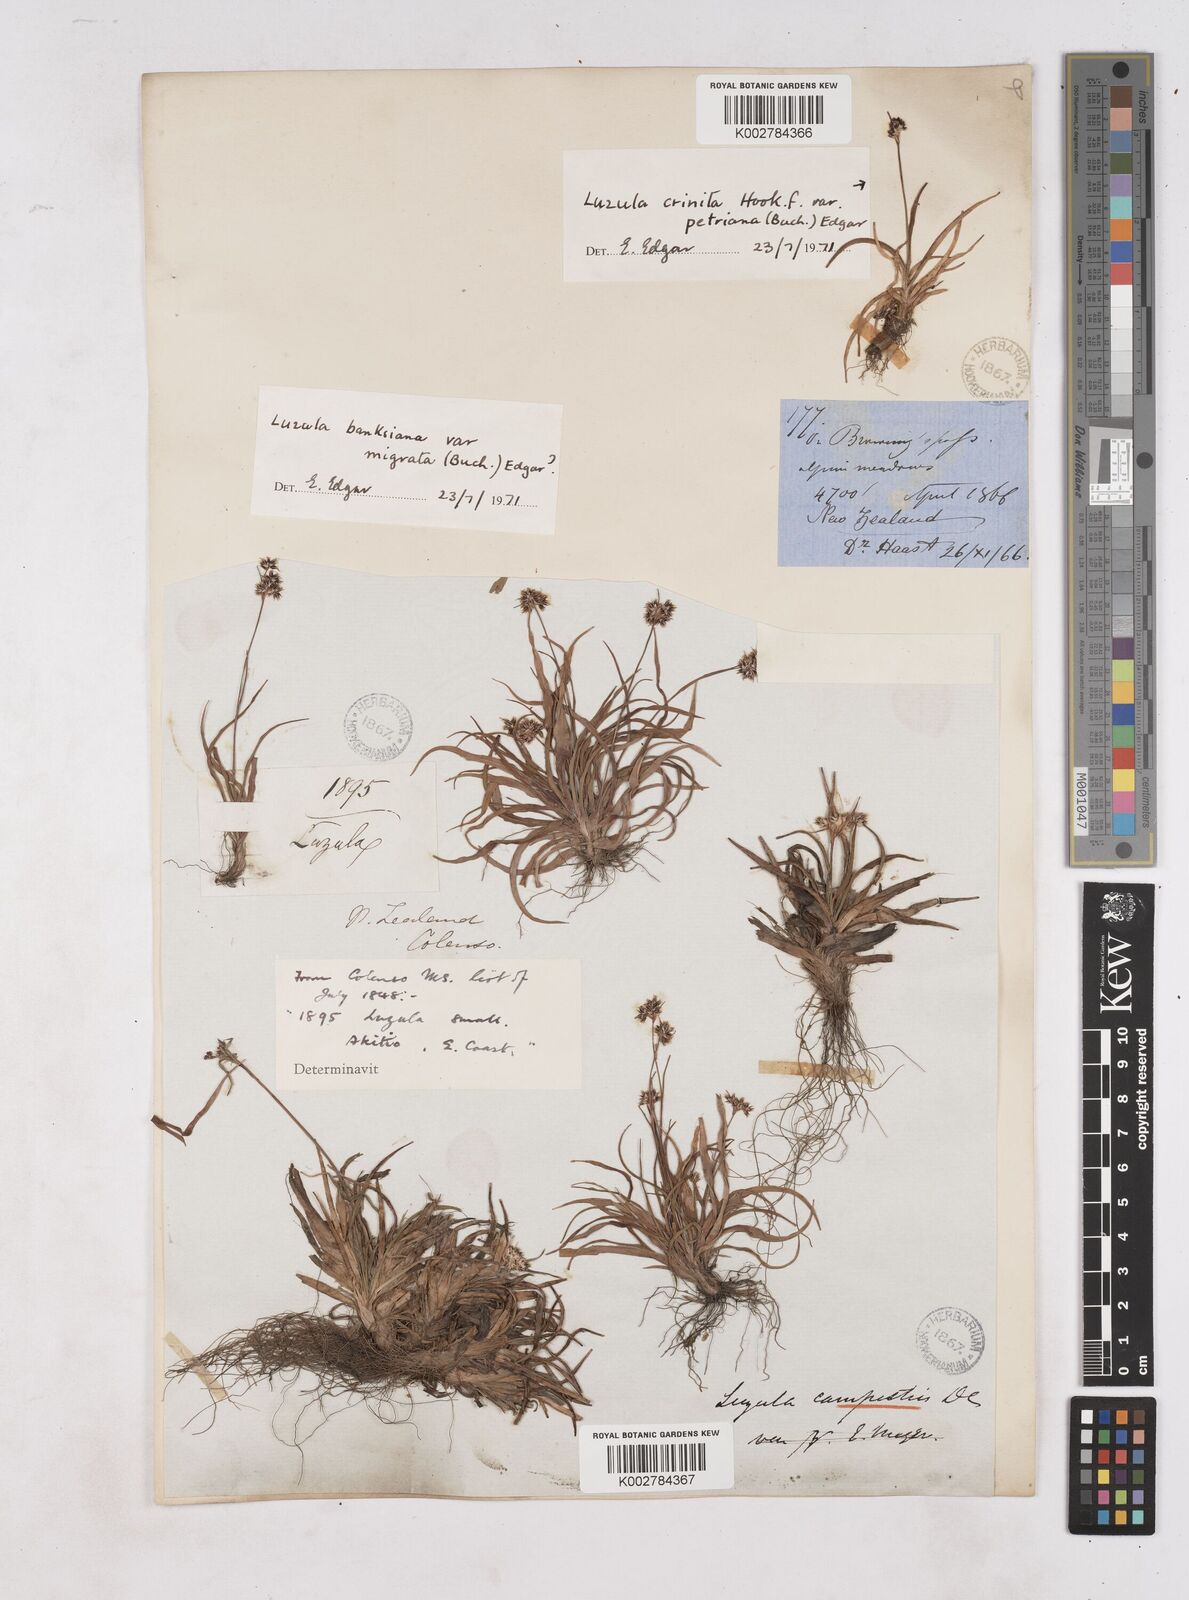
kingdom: Plantae
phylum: Tracheophyta
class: Liliopsida
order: Poales
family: Juncaceae
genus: Luzula
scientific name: Luzula
